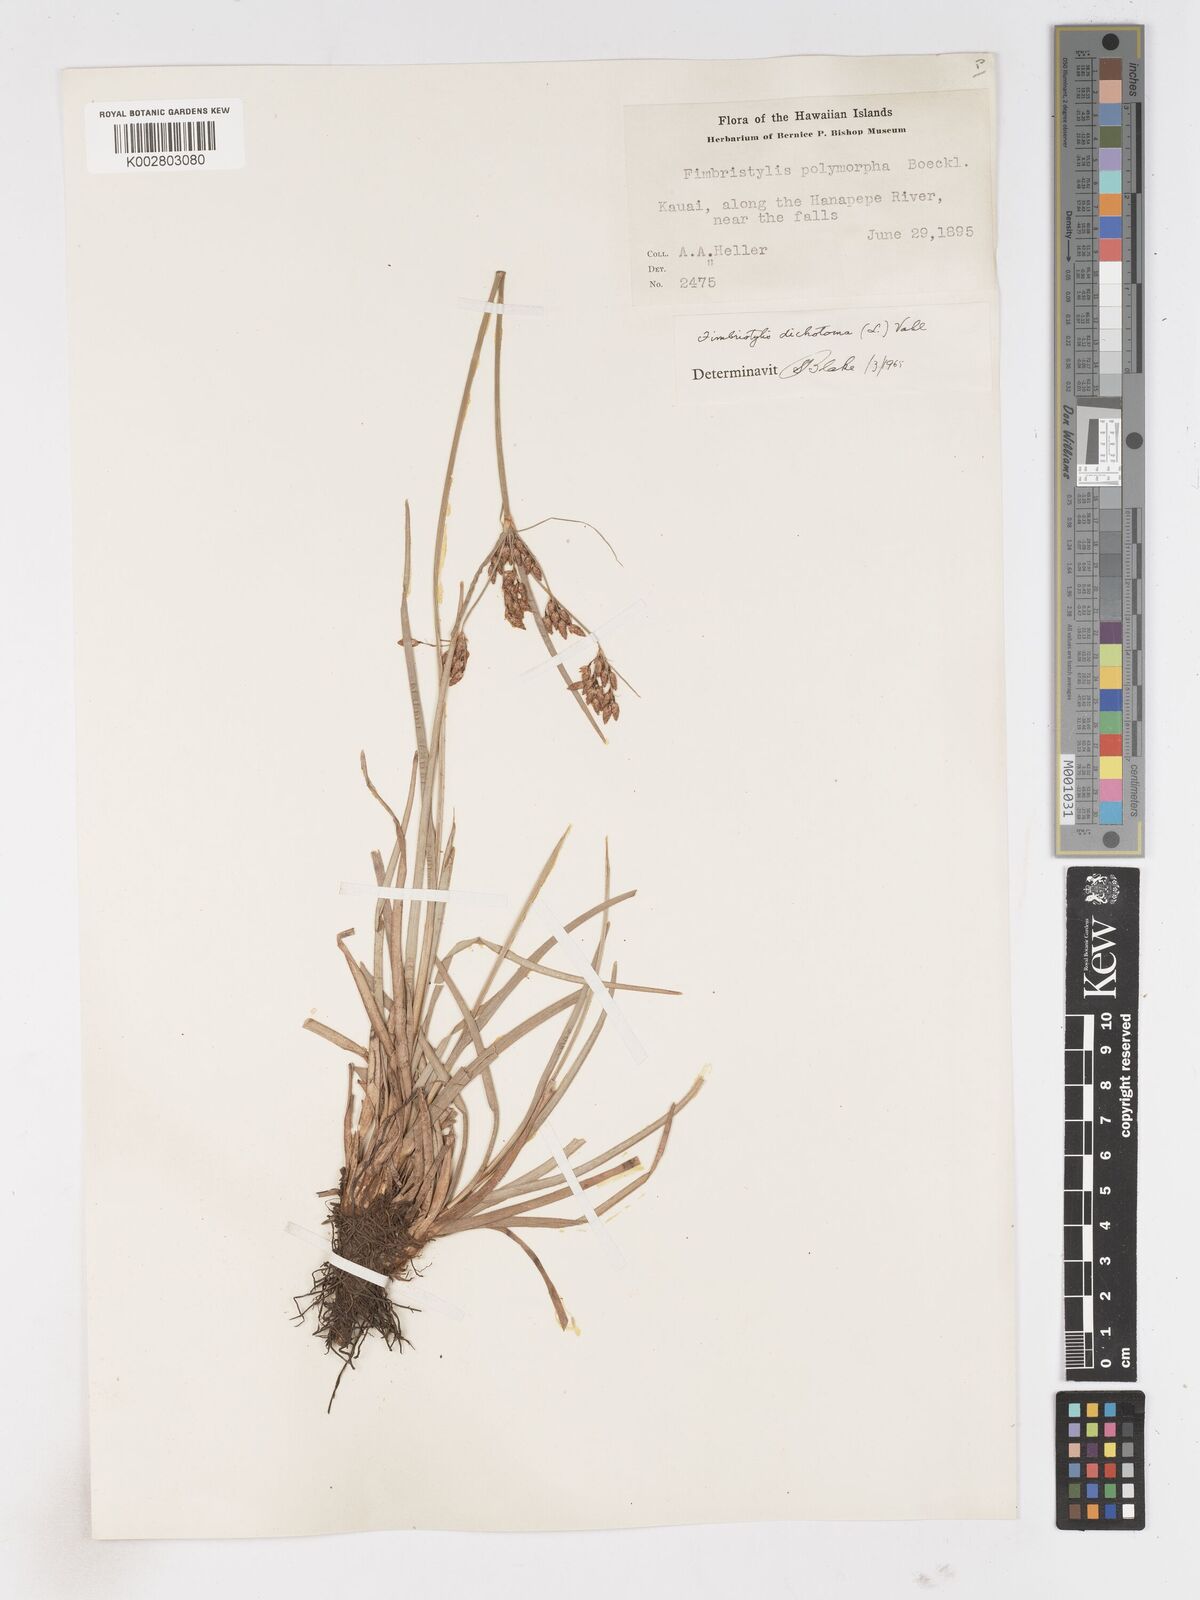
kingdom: Plantae
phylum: Tracheophyta
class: Liliopsida
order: Poales
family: Cyperaceae
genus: Fimbristylis
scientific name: Fimbristylis dichotoma
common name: Forked fimbry
